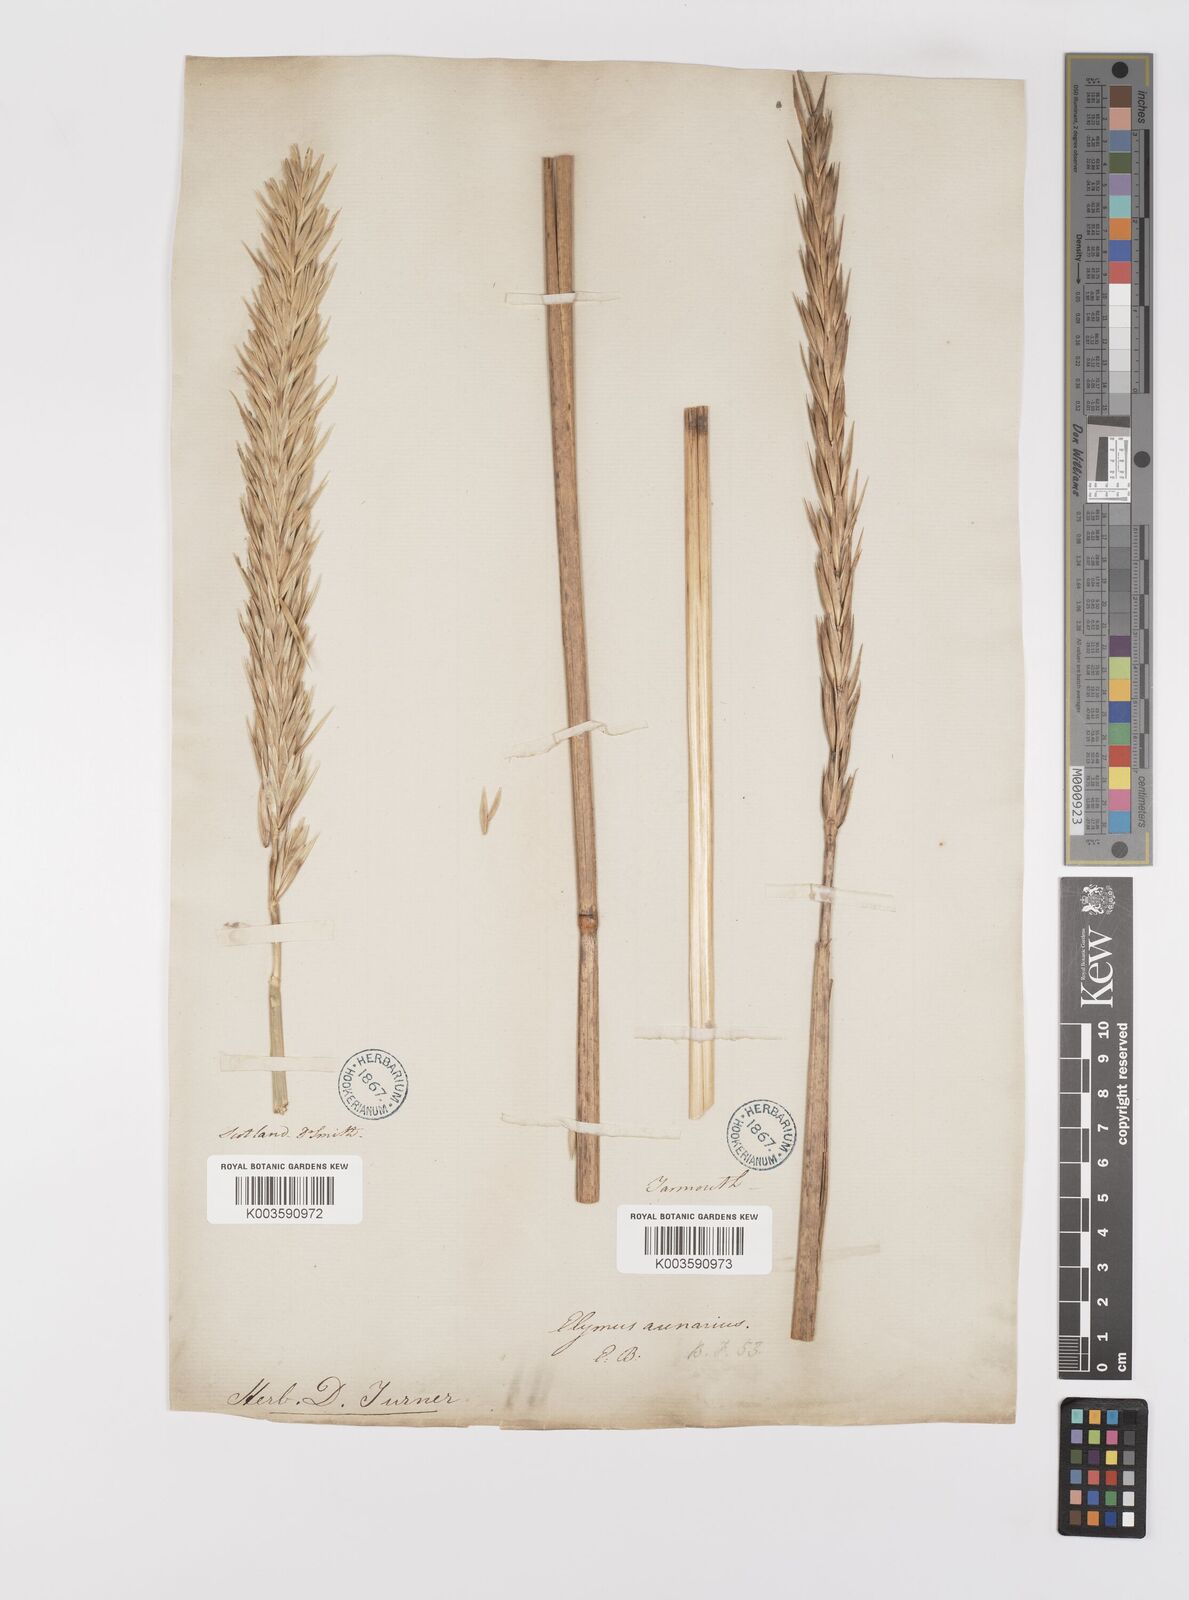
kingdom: Plantae
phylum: Tracheophyta
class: Liliopsida
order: Poales
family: Poaceae
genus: Leymus
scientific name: Leymus arenarius
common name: Lyme-grass
